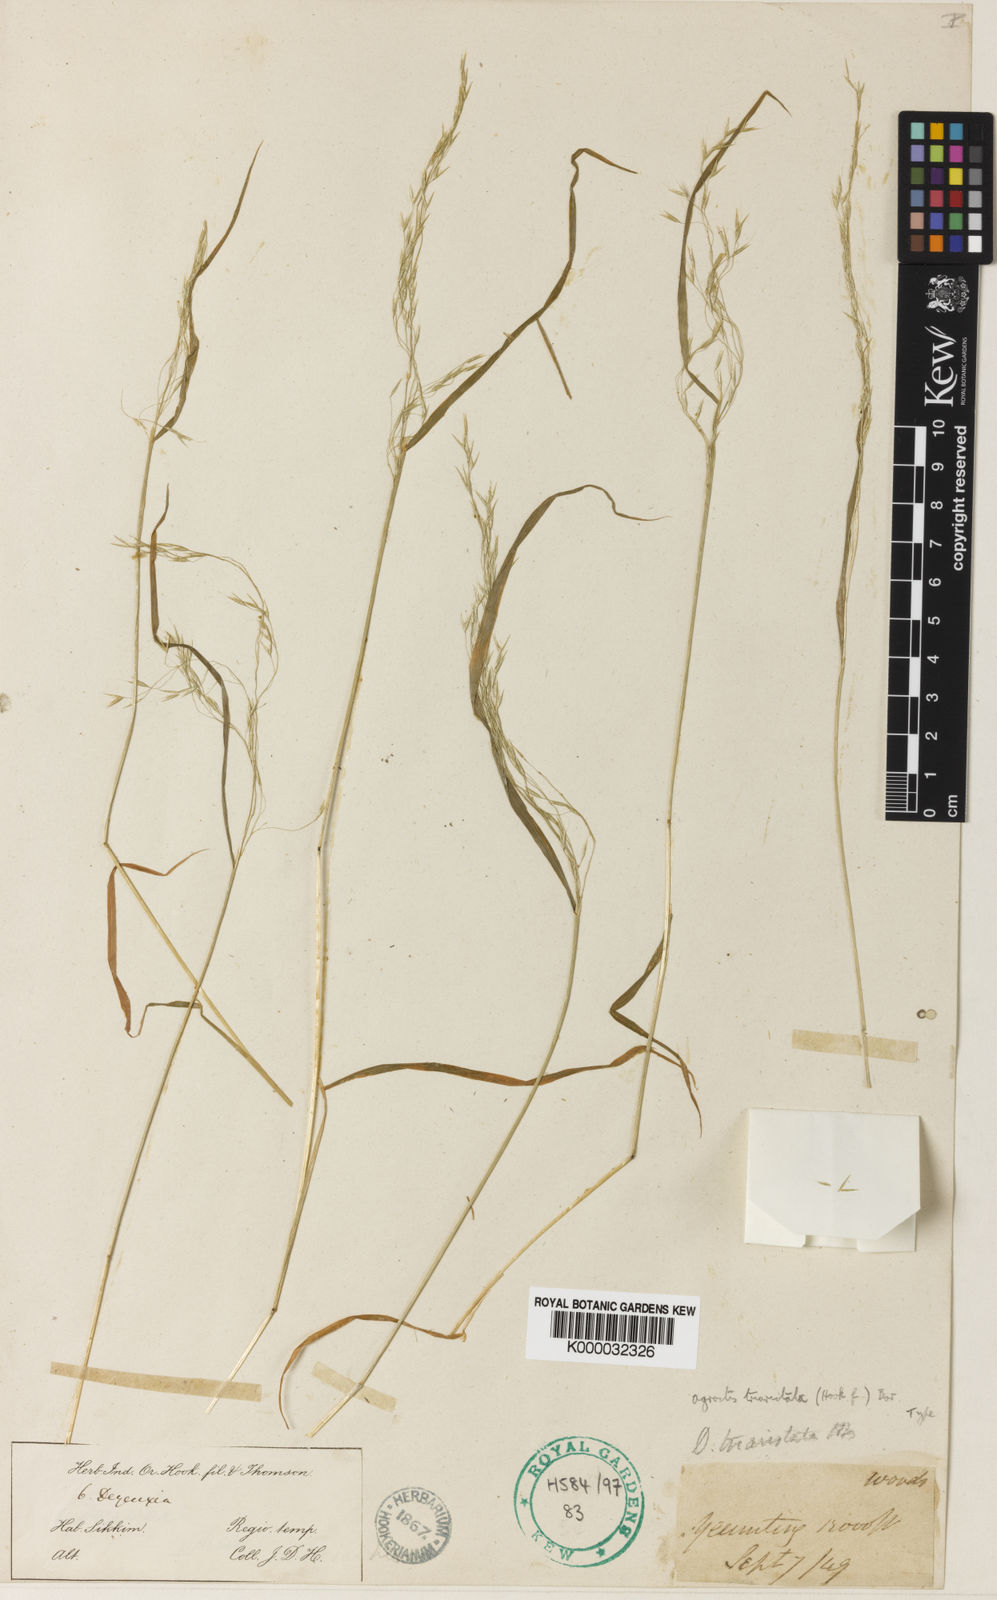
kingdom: Plantae
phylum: Tracheophyta
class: Liliopsida
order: Poales
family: Poaceae
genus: Agrostis
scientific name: Agrostis
